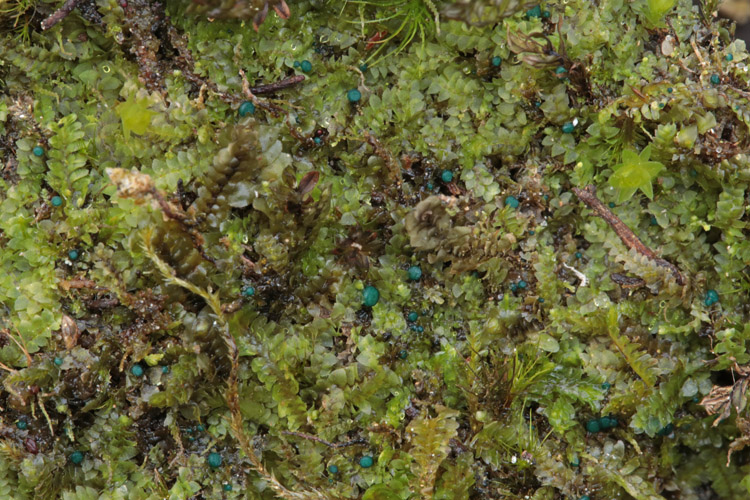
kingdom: Fungi
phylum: Ascomycota
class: Leotiomycetes
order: Leotiales
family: Mniaeciaceae
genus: Mniaecia
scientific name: Mniaecia jungermanniae
